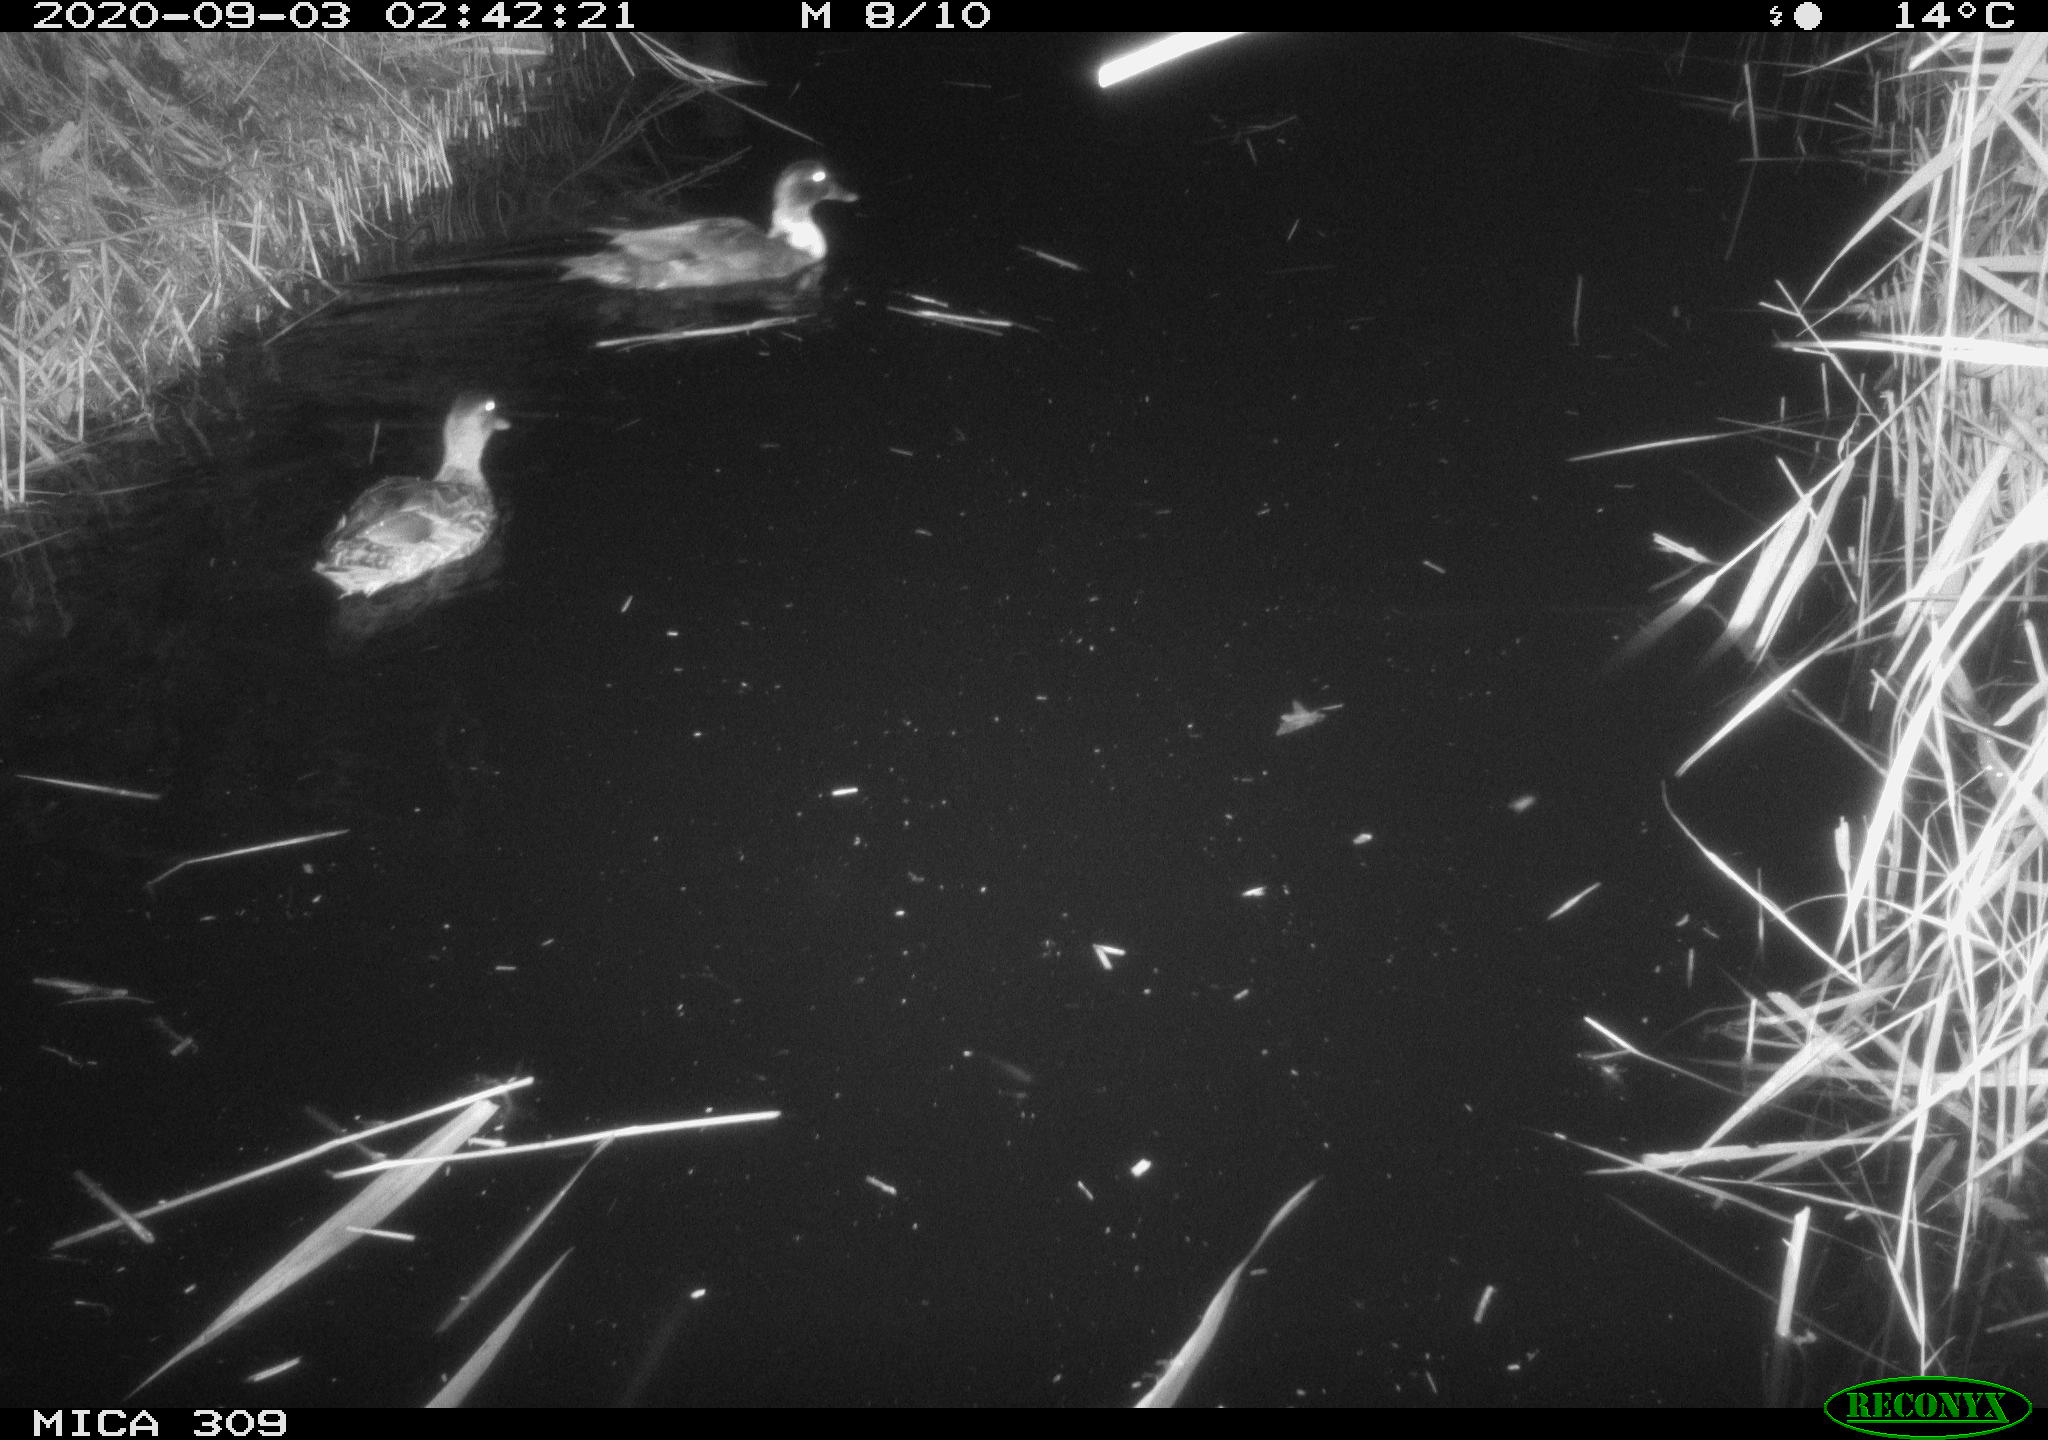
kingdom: Animalia
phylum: Chordata
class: Aves
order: Anseriformes
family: Anatidae
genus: Anas
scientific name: Anas platyrhynchos
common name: Mallard
